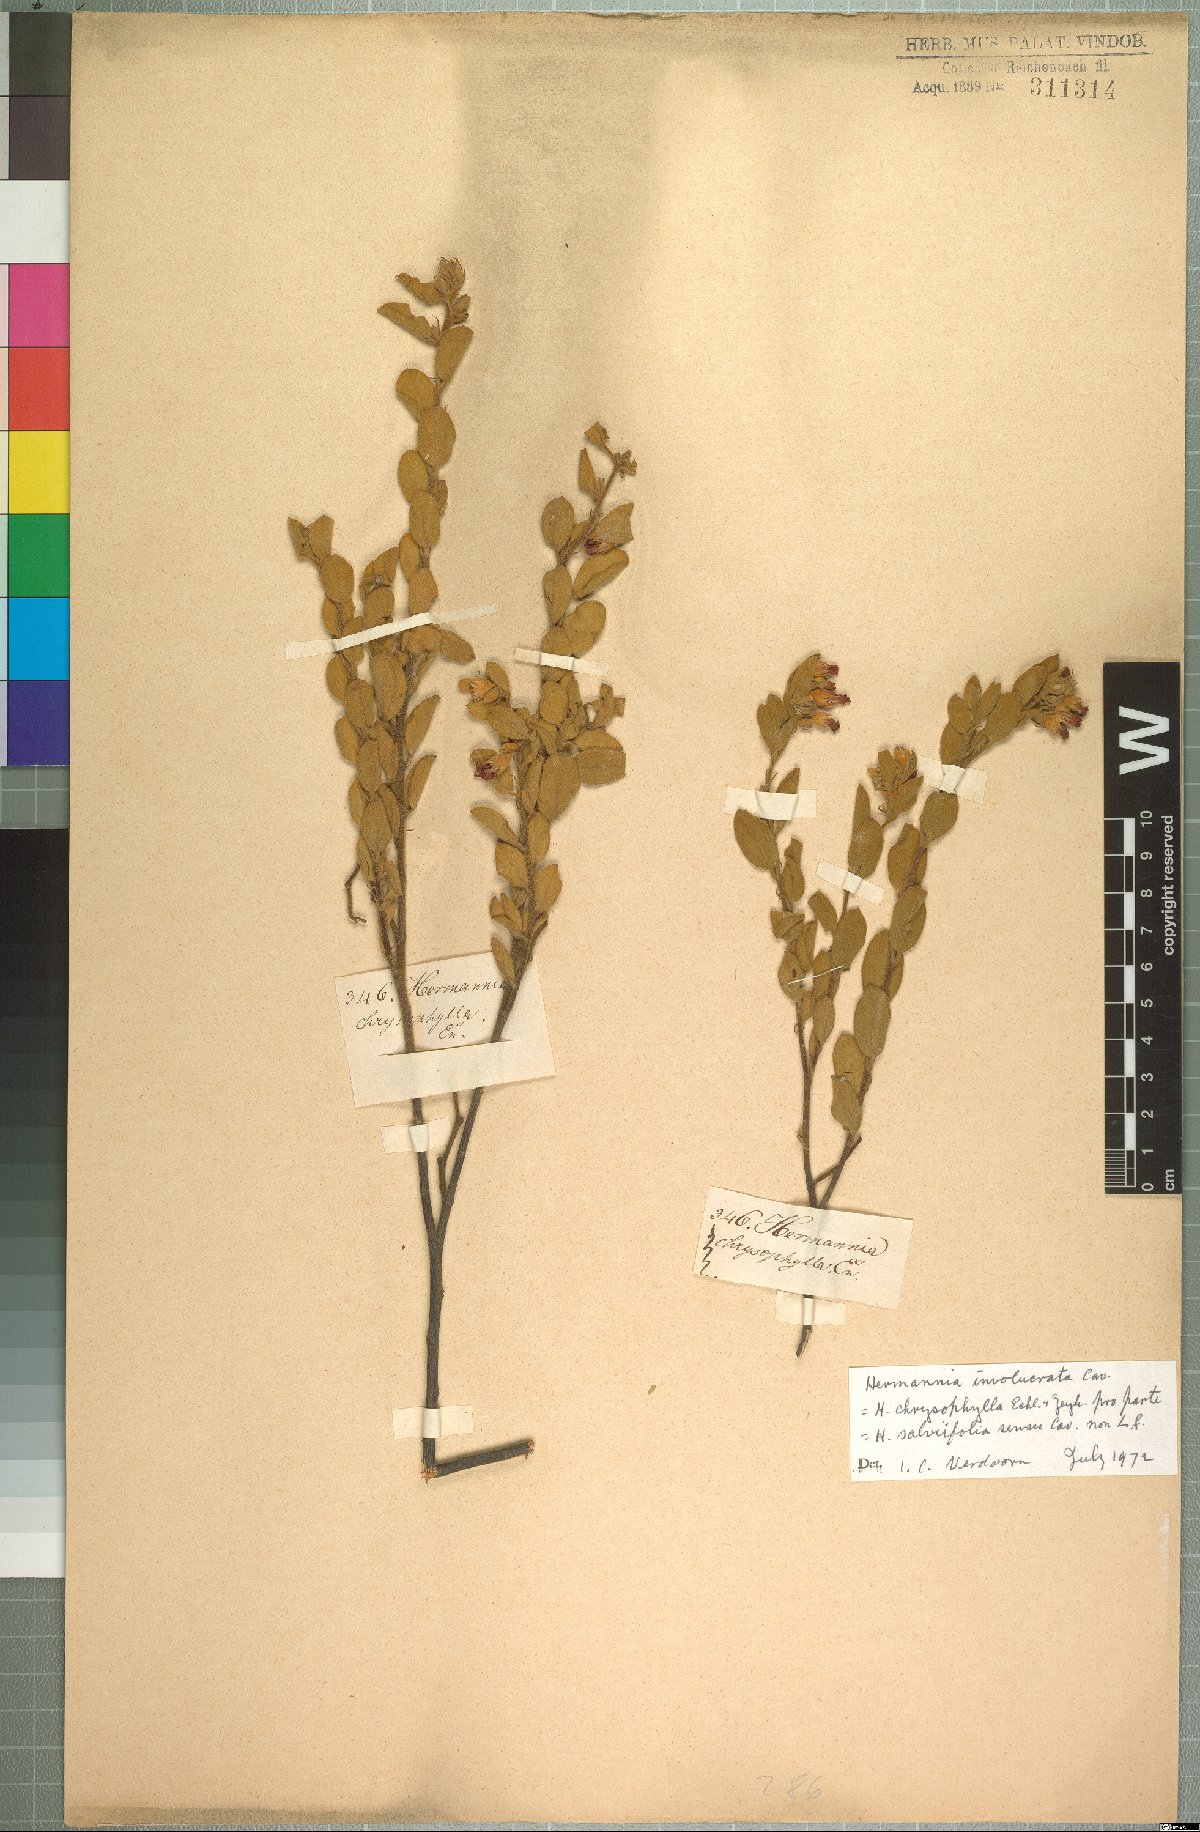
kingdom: Plantae
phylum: Tracheophyta
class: Magnoliopsida
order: Malvales
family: Malvaceae
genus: Hermannia
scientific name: Hermannia involucrata
